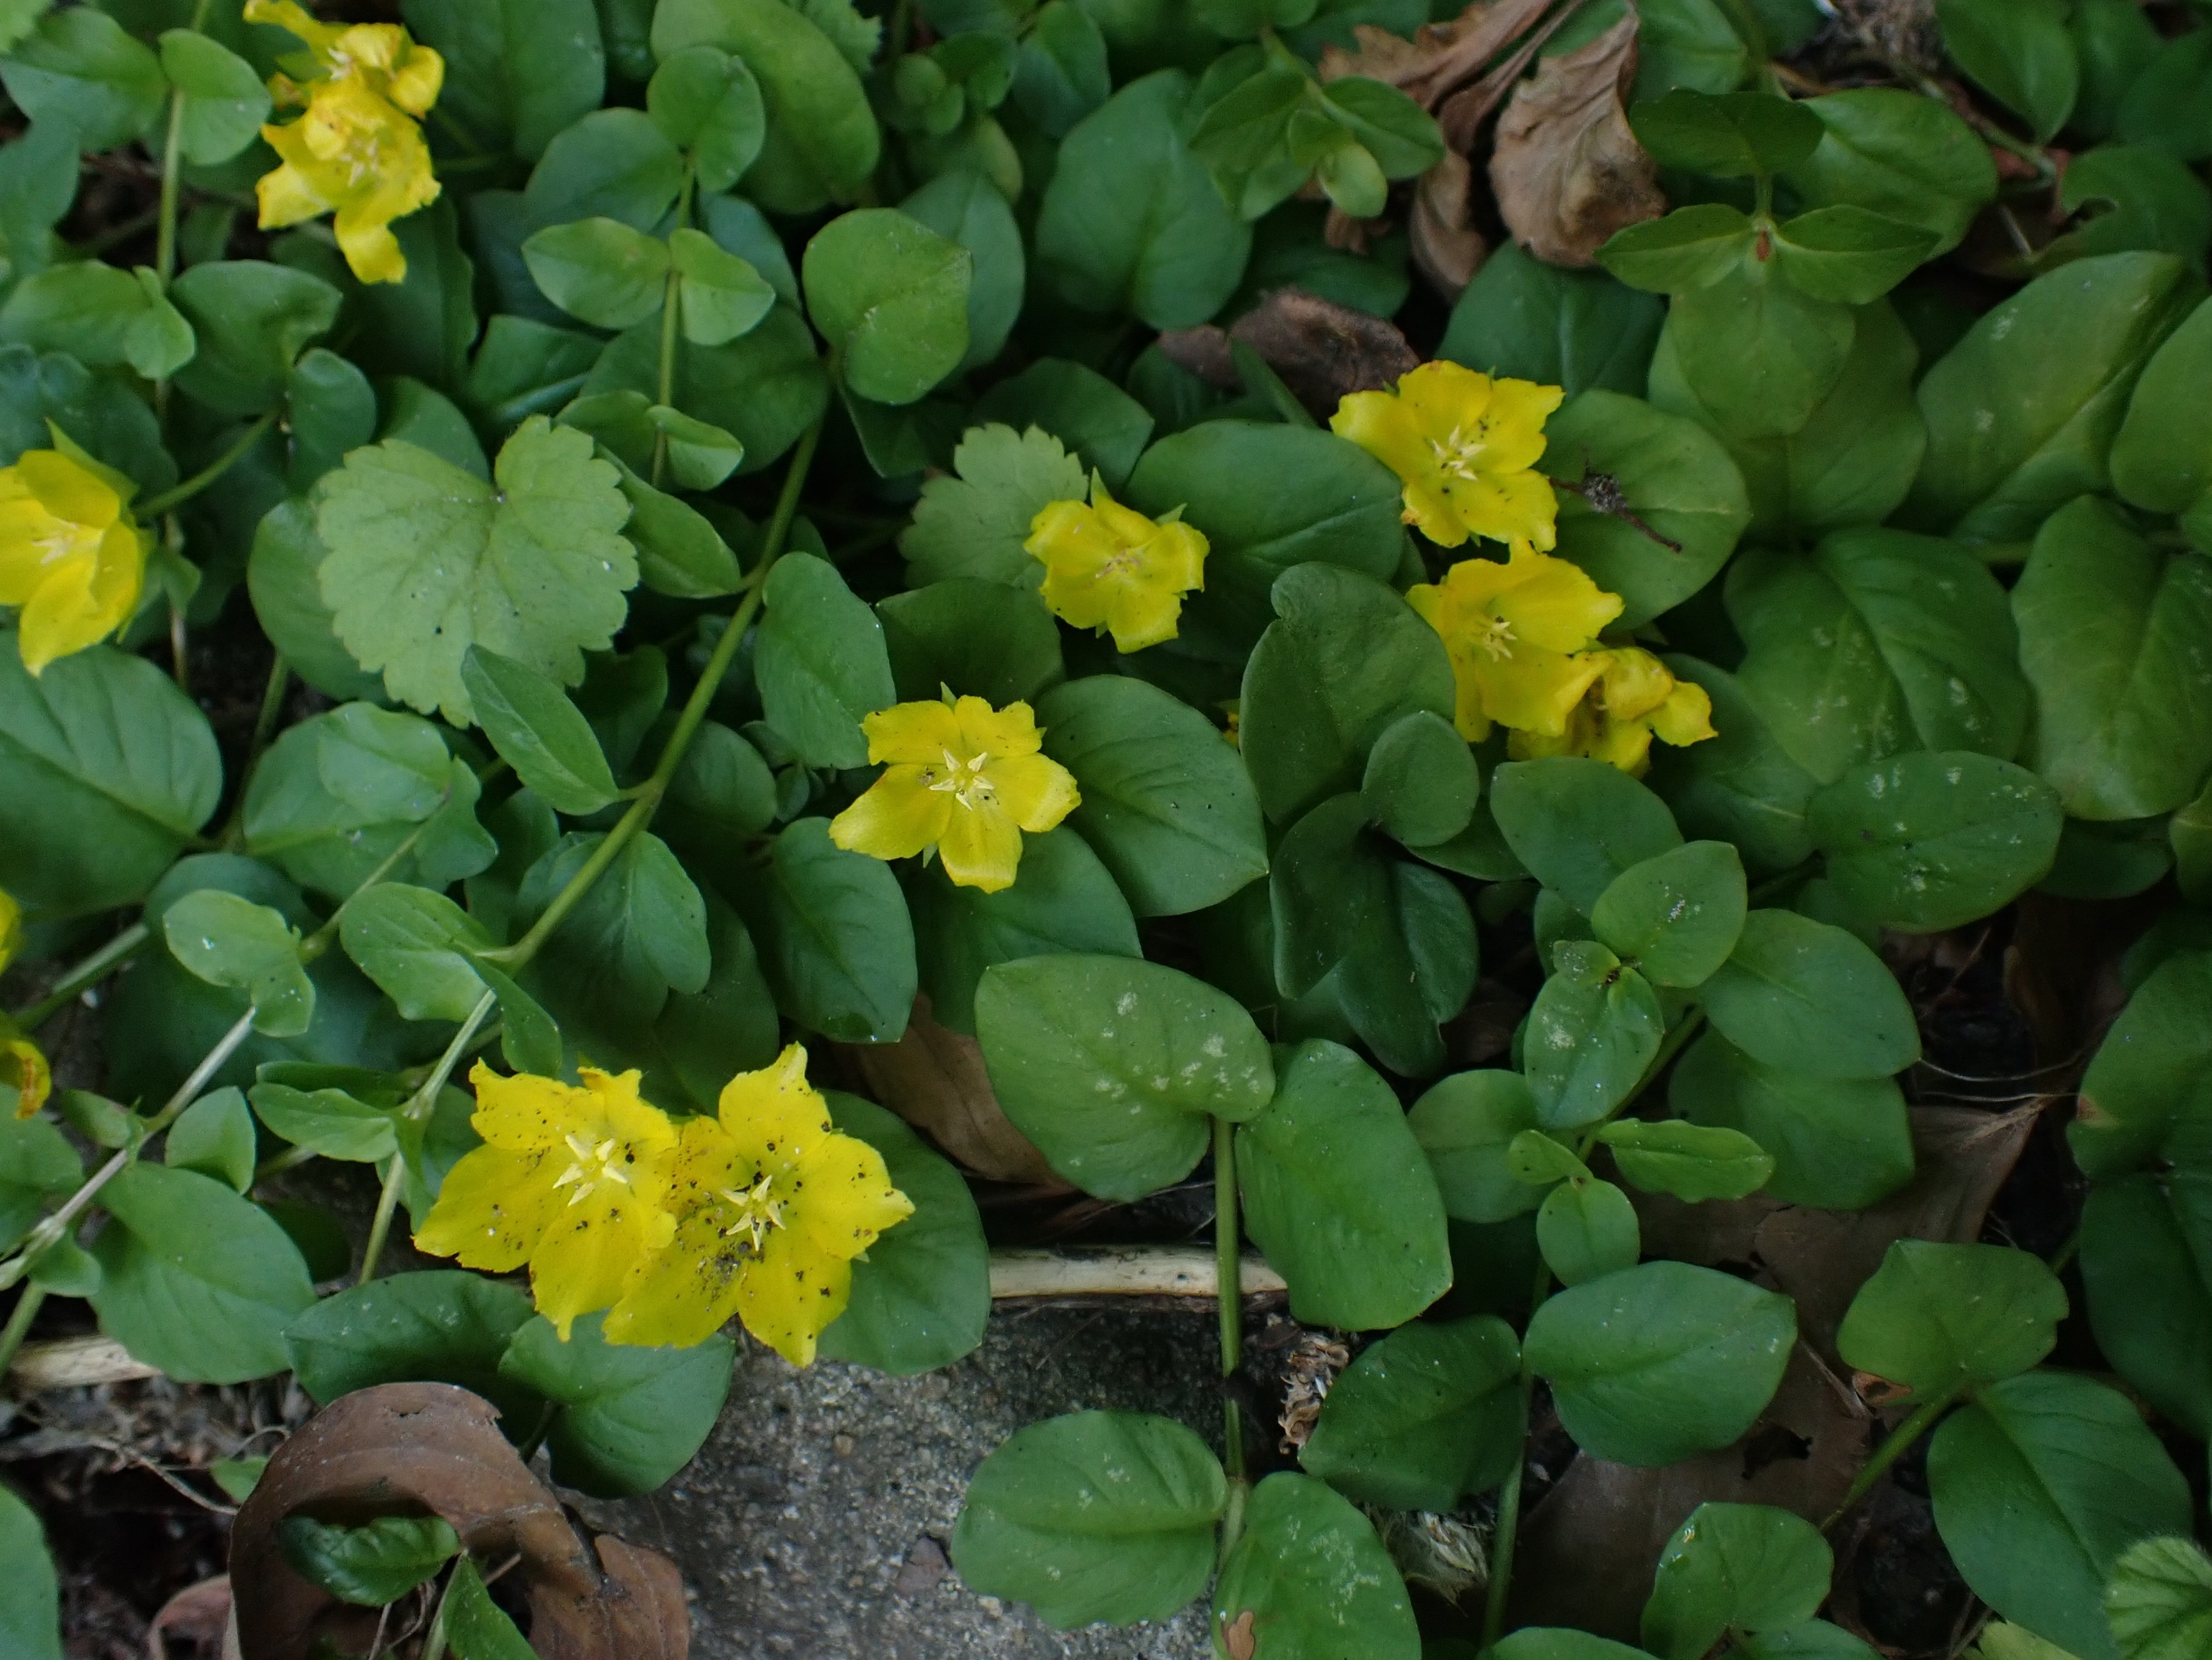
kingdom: Plantae
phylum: Tracheophyta
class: Magnoliopsida
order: Ericales
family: Primulaceae
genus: Lysimachia
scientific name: Lysimachia nummularia
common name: Pengebladet fredløs
